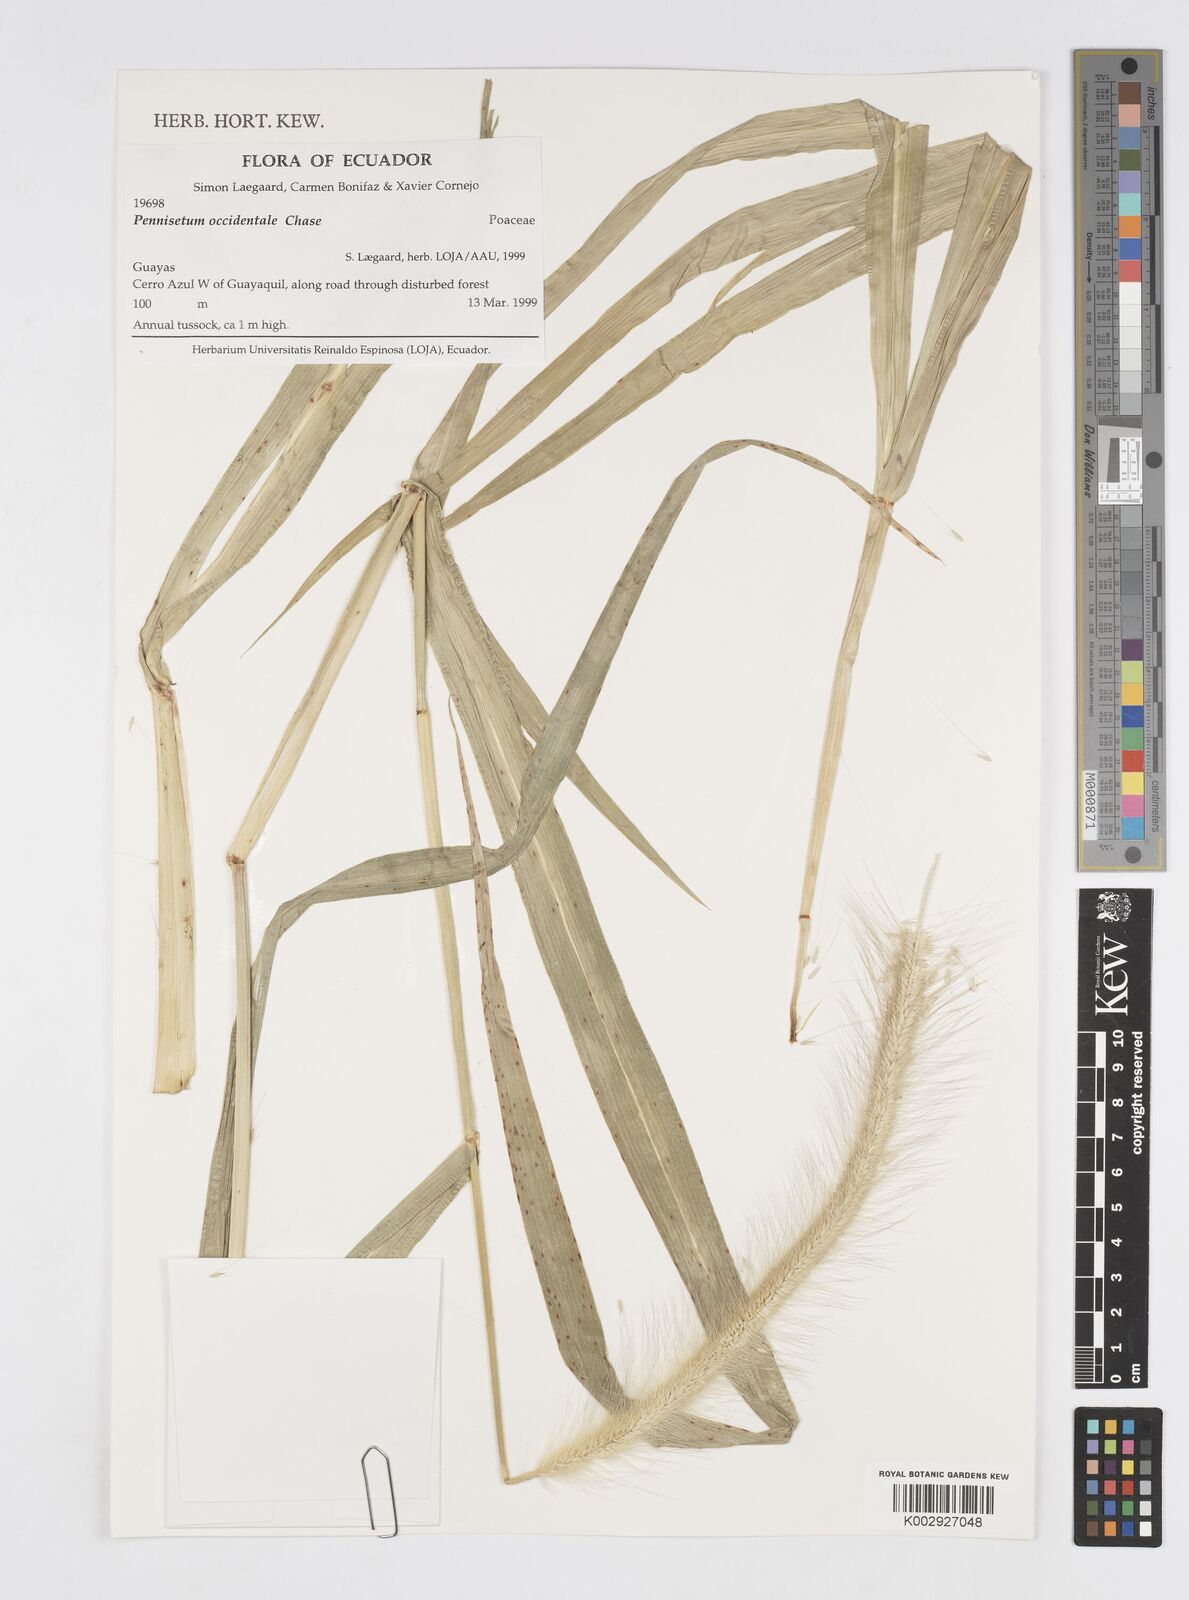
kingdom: Plantae
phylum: Tracheophyta
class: Liliopsida
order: Poales
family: Poaceae
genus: Cenchrus
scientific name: Cenchrus occidentalis
